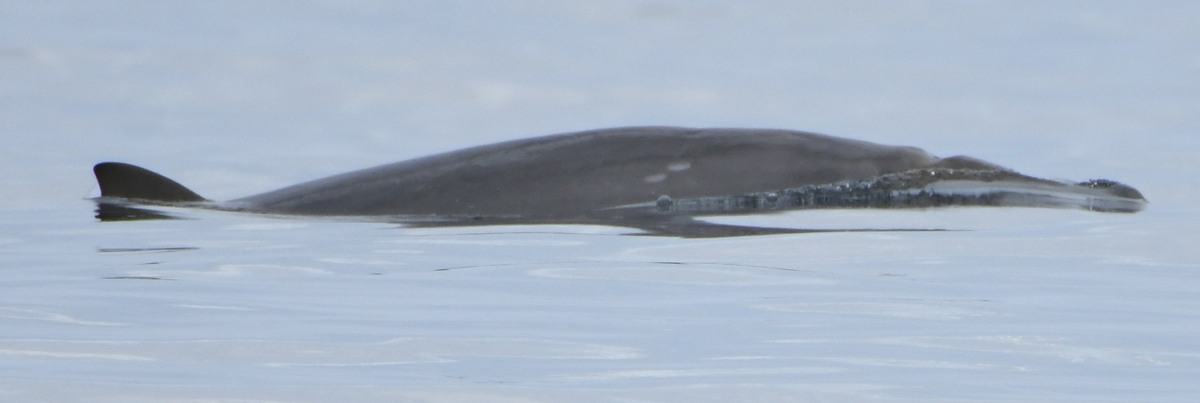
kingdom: Animalia
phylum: Chordata
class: Mammalia
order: Cetacea
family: Hyperoodontidae
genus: Mesoplodon
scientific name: Mesoplodon densirostris
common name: Blainville's Beaked Whale
